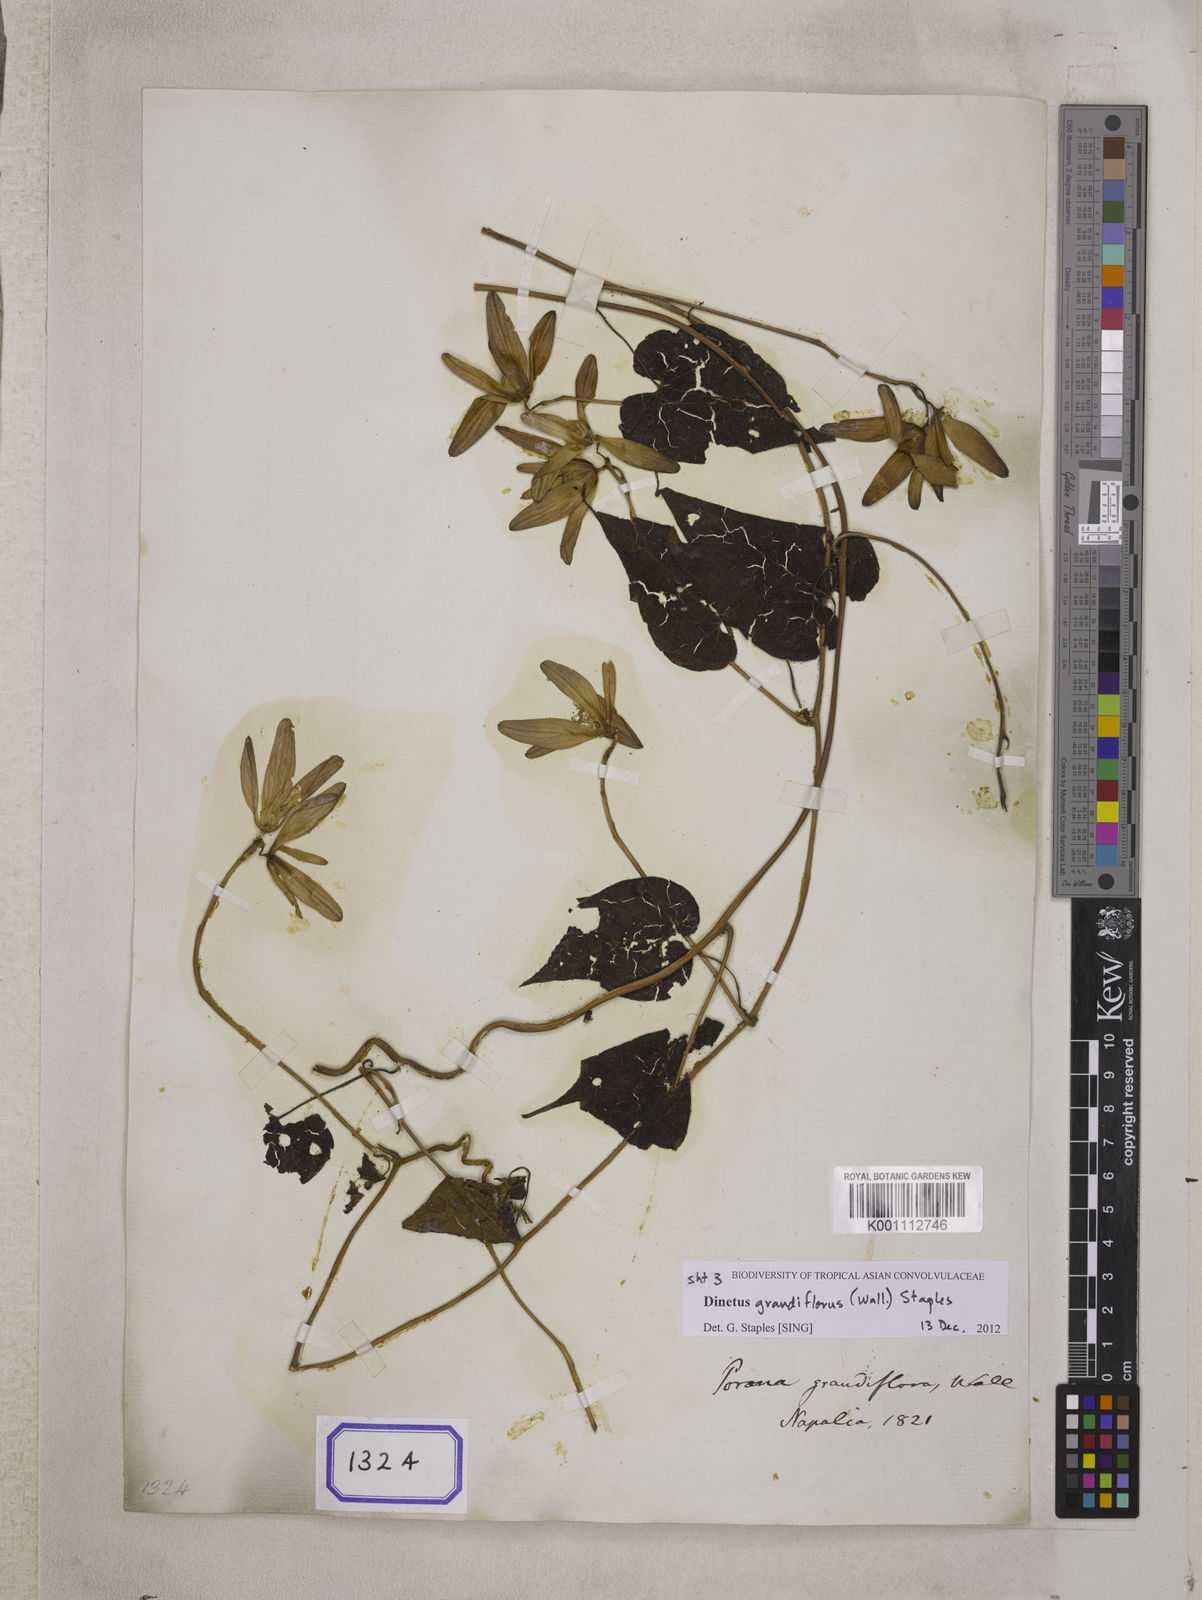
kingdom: Plantae
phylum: Tracheophyta
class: Magnoliopsida
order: Solanales
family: Convolvulaceae
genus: Dinetus
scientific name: Dinetus grandiflorus
